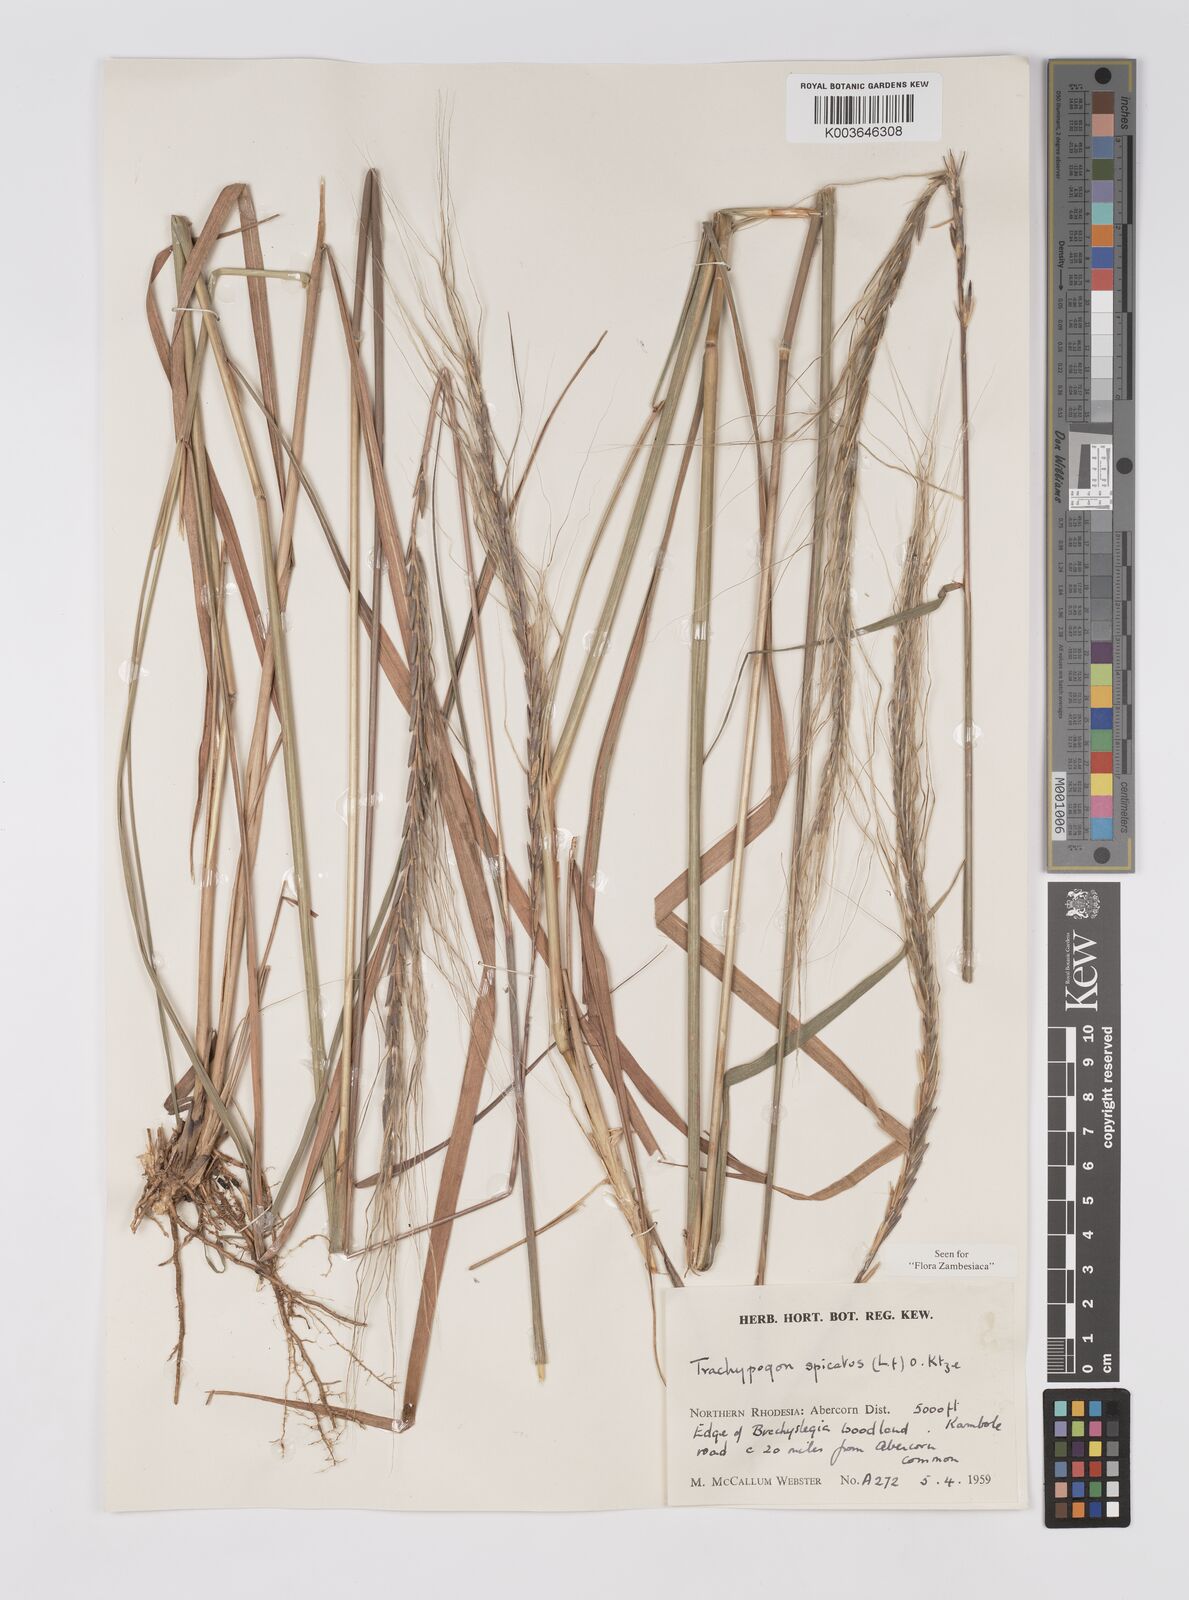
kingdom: Plantae
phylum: Tracheophyta
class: Liliopsida
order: Poales
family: Poaceae
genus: Trachypogon
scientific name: Trachypogon spicatus
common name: Crinkle-awn
